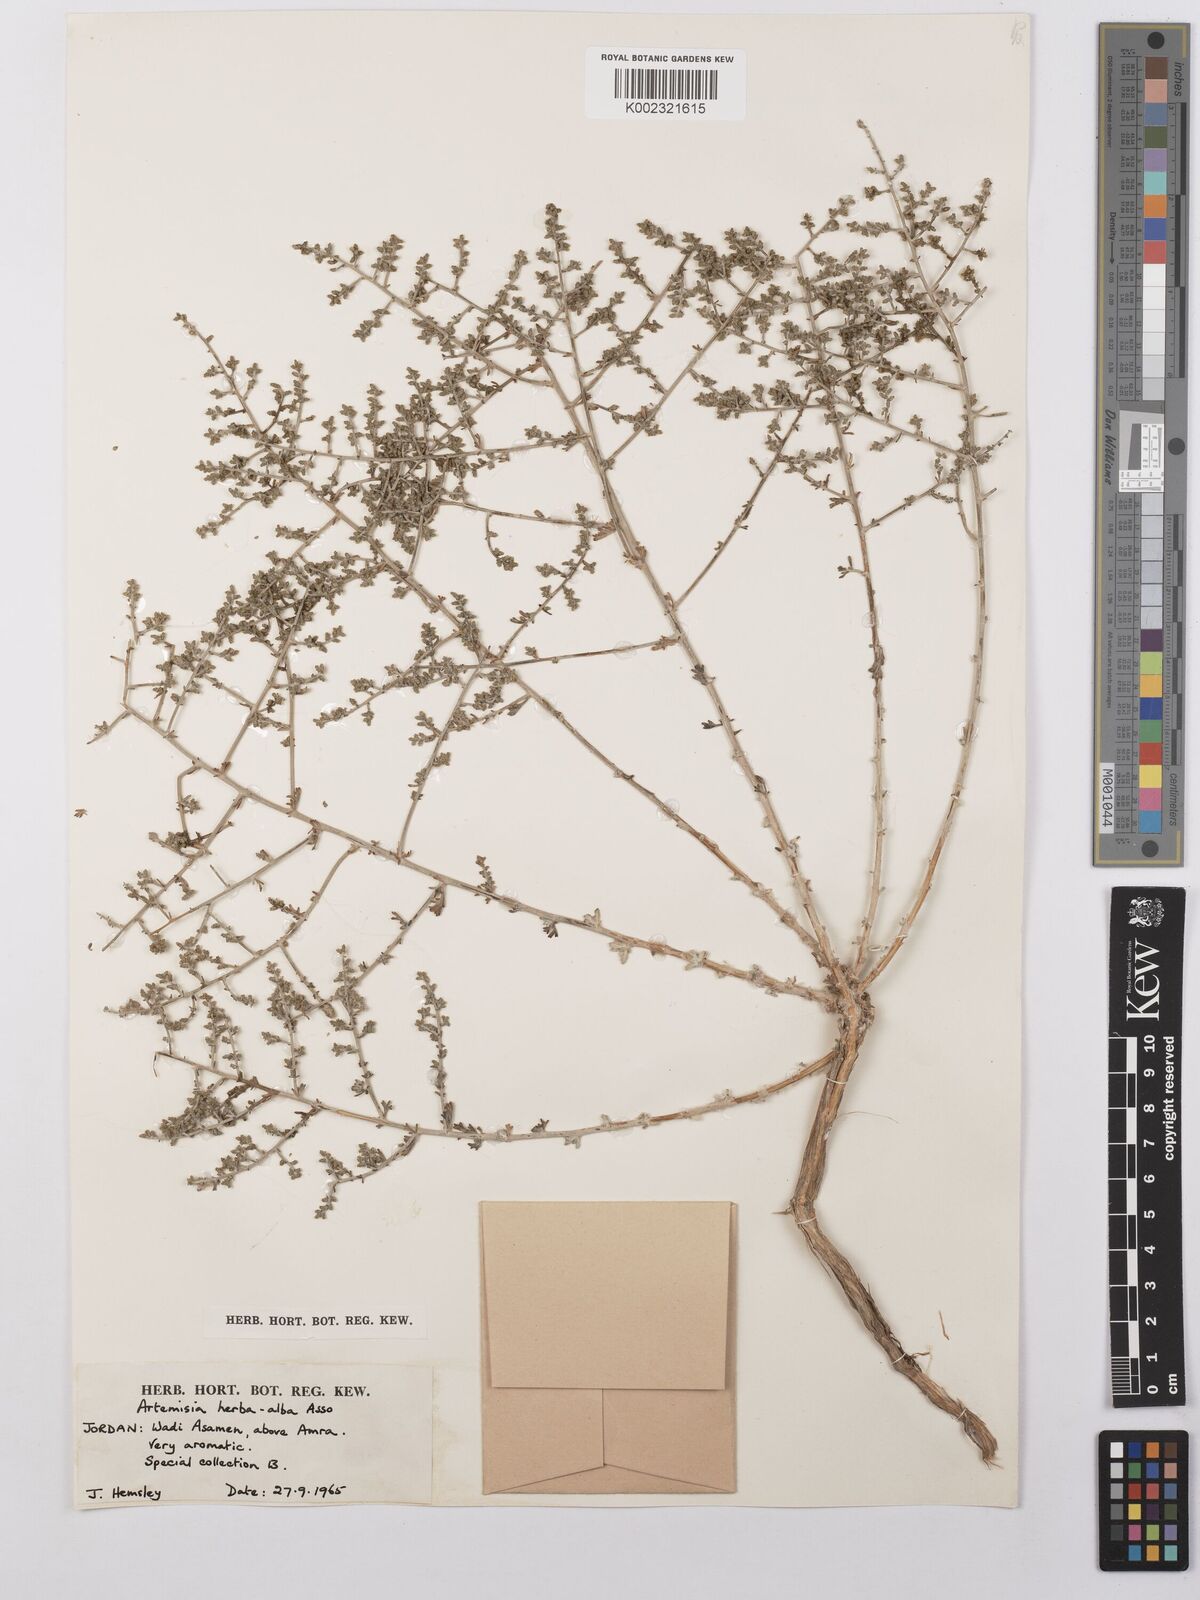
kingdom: Plantae
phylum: Tracheophyta
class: Magnoliopsida
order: Asterales
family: Asteraceae
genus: Artemisia
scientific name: Artemisia herba-alba
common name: White wormwood
